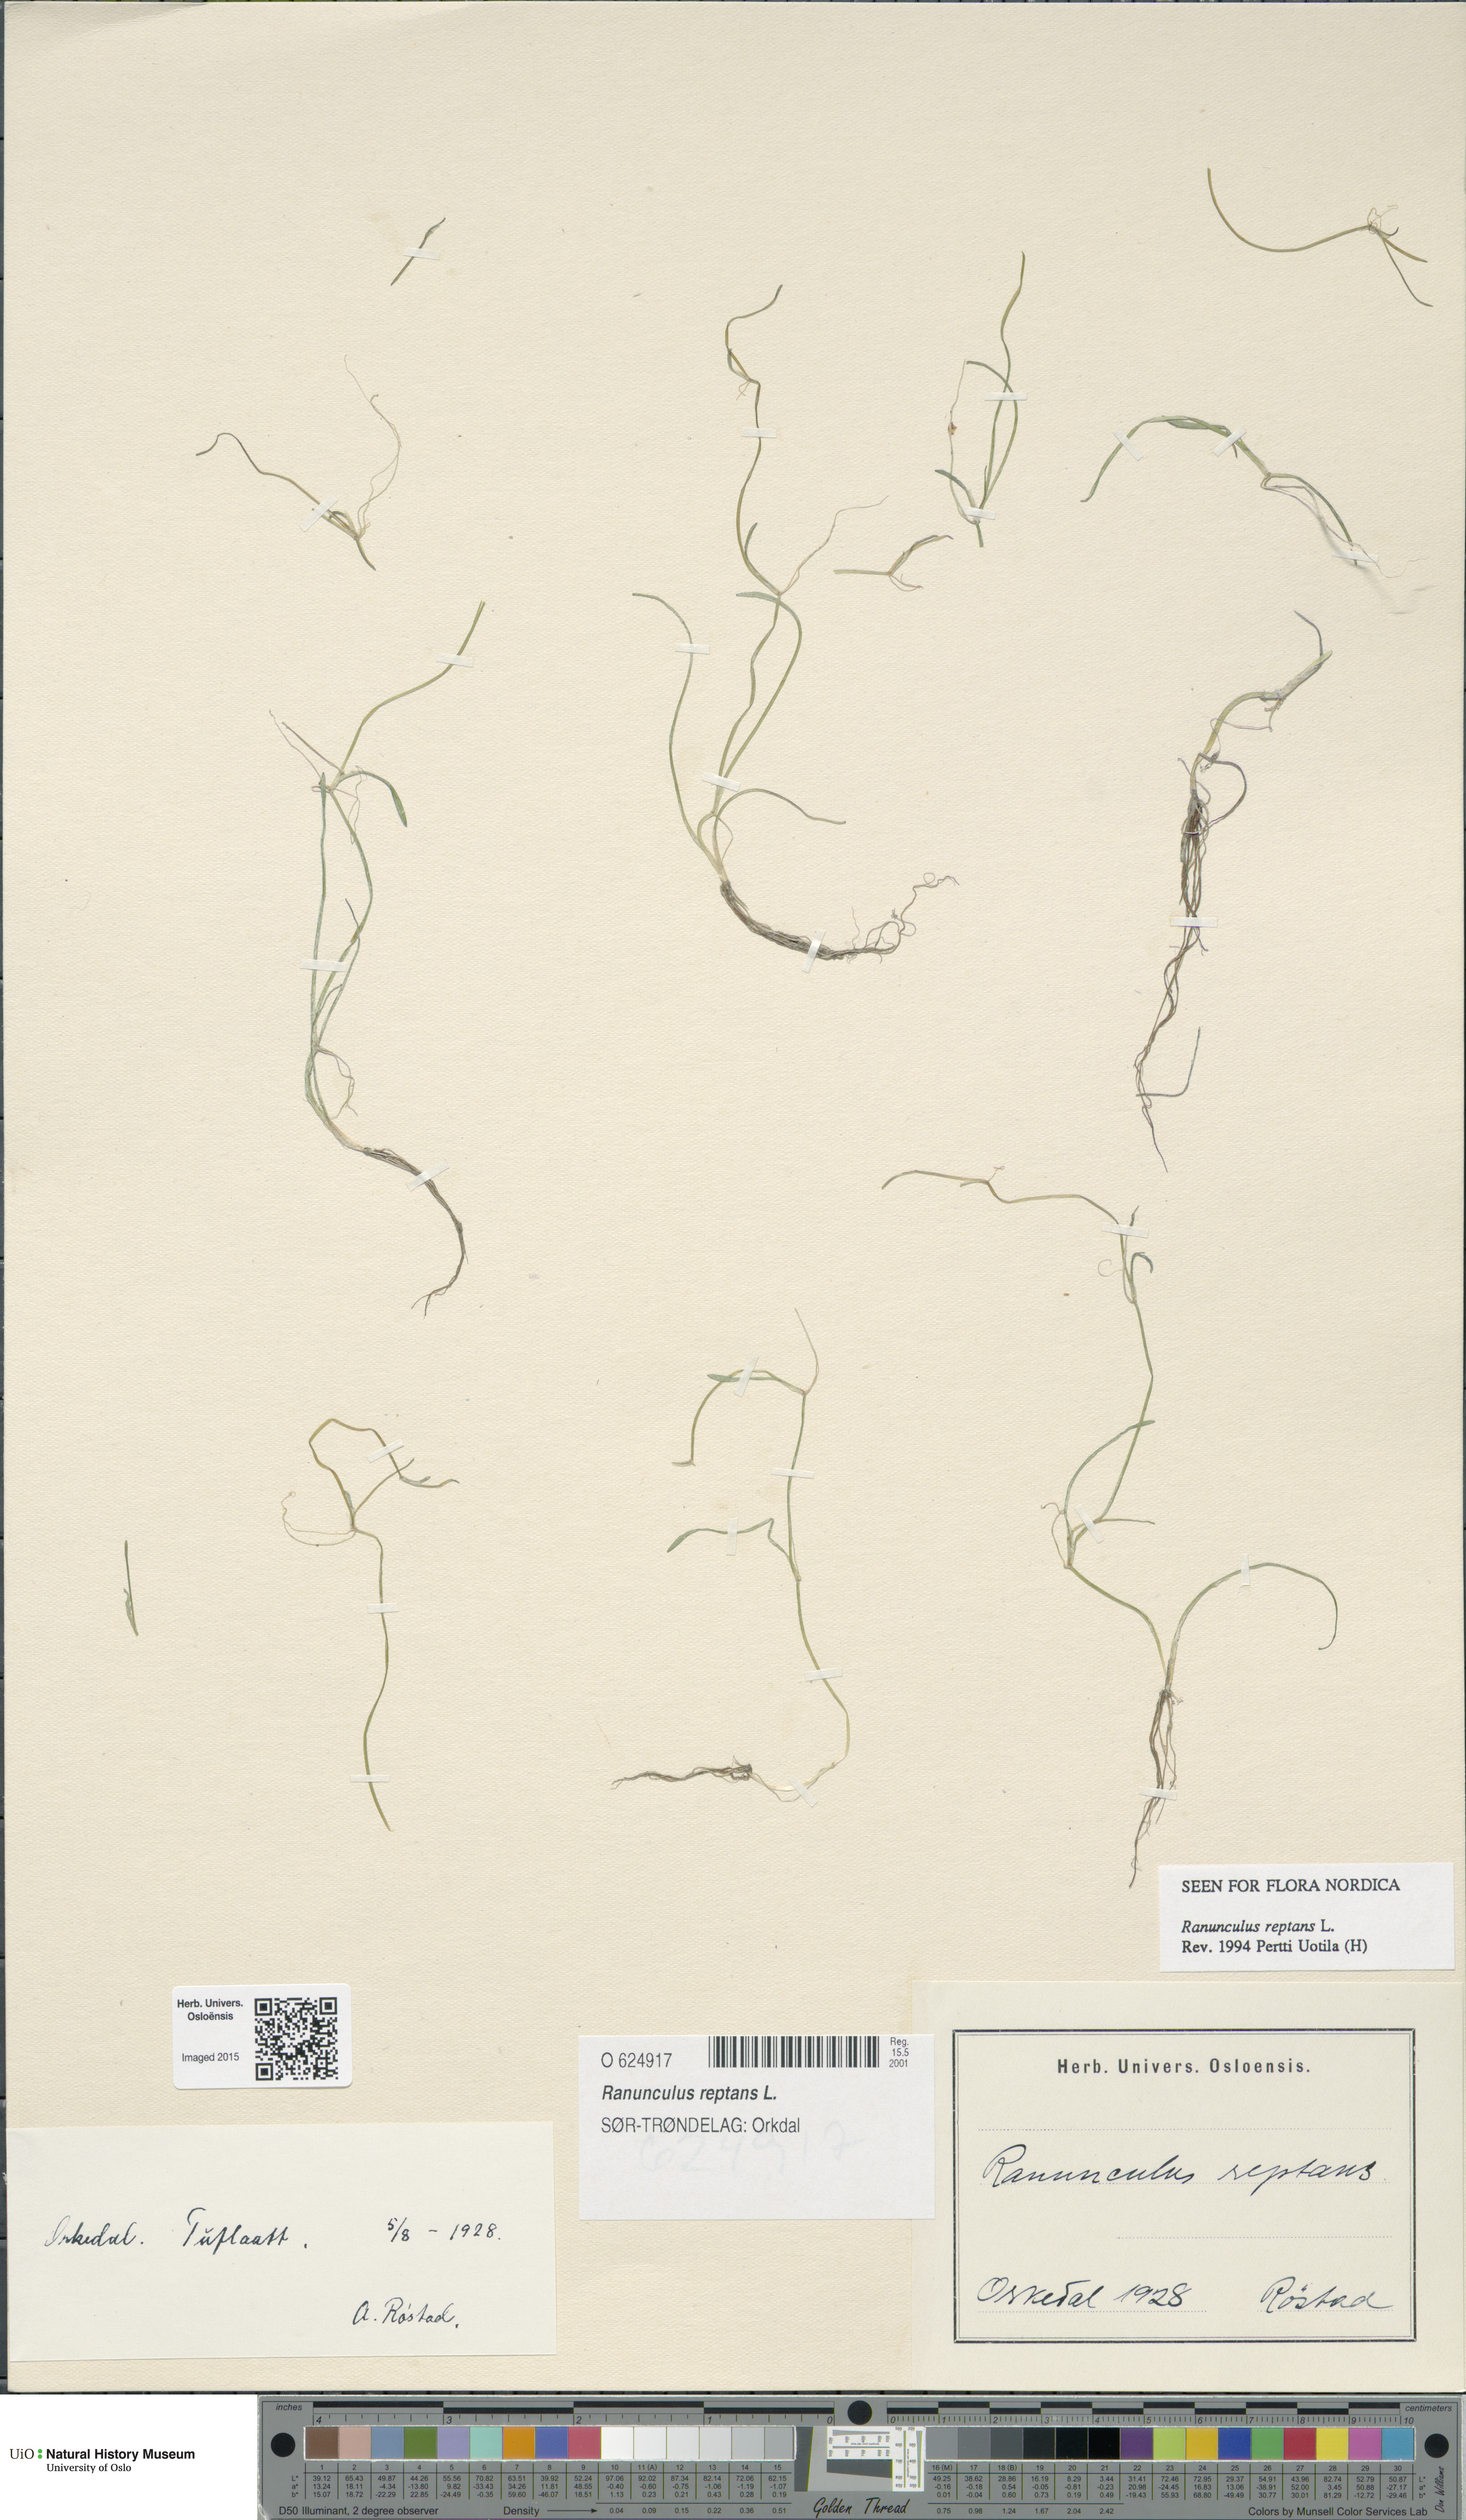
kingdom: Plantae
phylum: Tracheophyta
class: Magnoliopsida
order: Ranunculales
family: Ranunculaceae
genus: Ranunculus
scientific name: Ranunculus reptans
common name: Creeping spearwort
